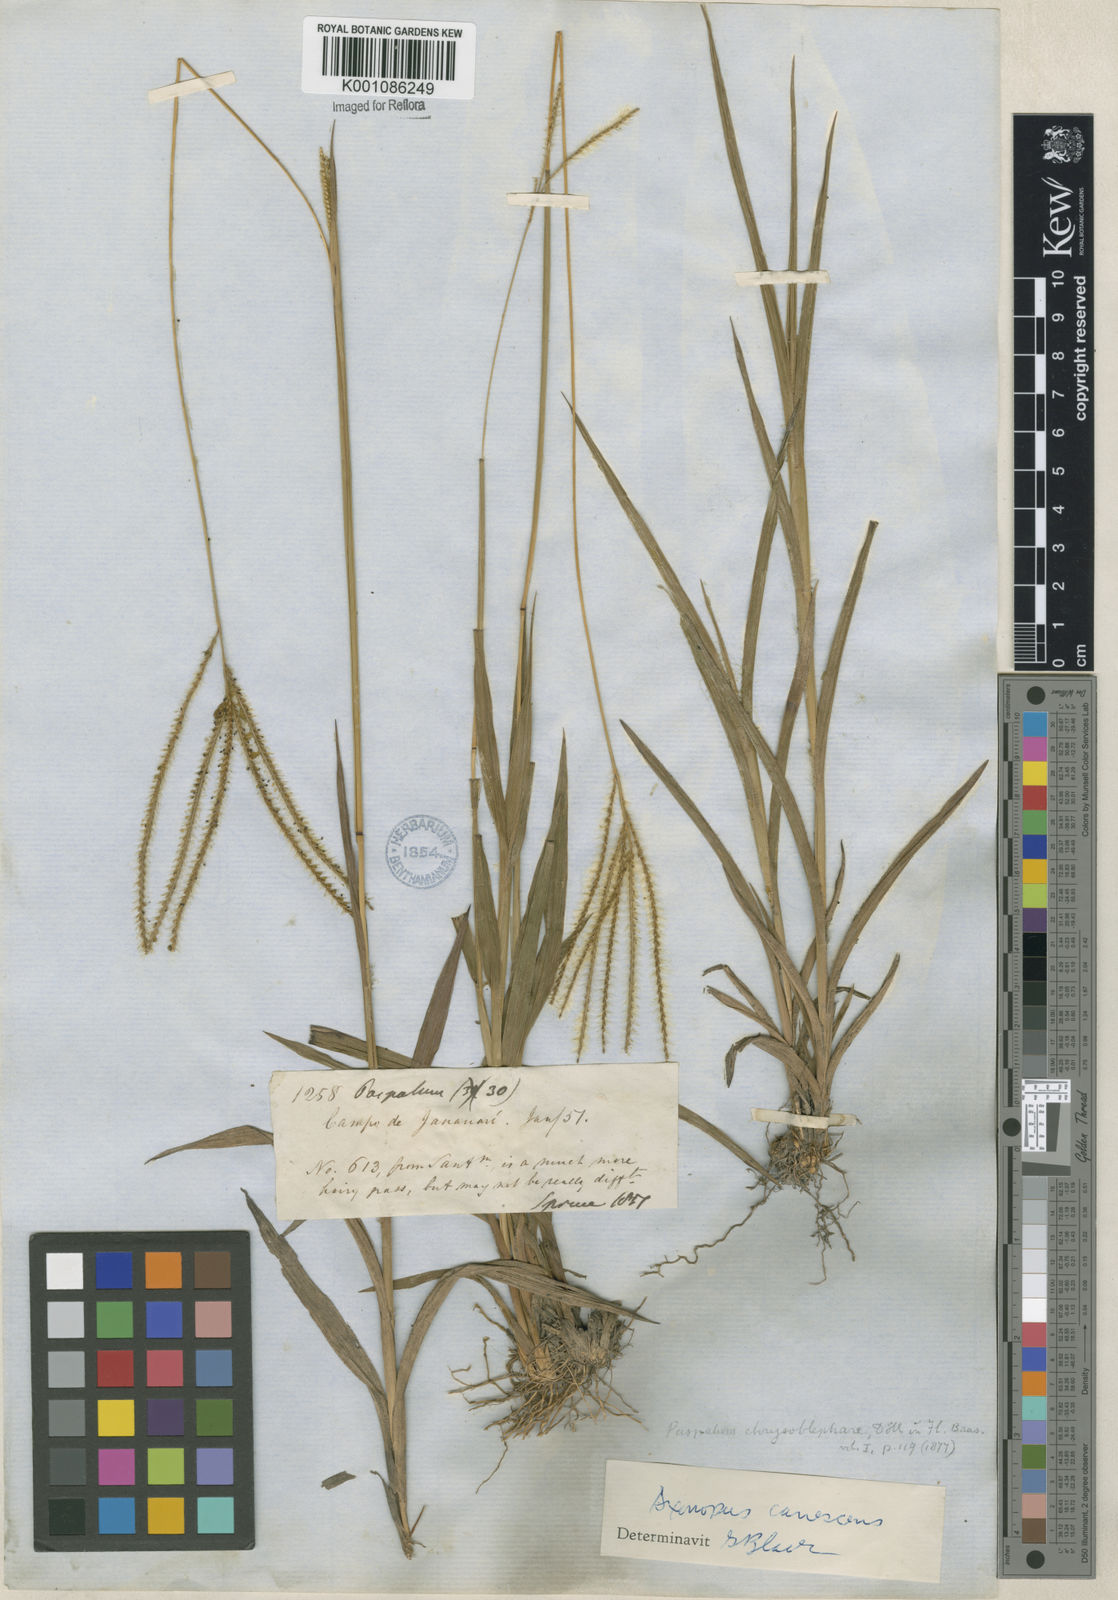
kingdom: Plantae
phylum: Tracheophyta
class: Liliopsida
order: Poales
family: Poaceae
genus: Axonopus
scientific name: Axonopus aureus
